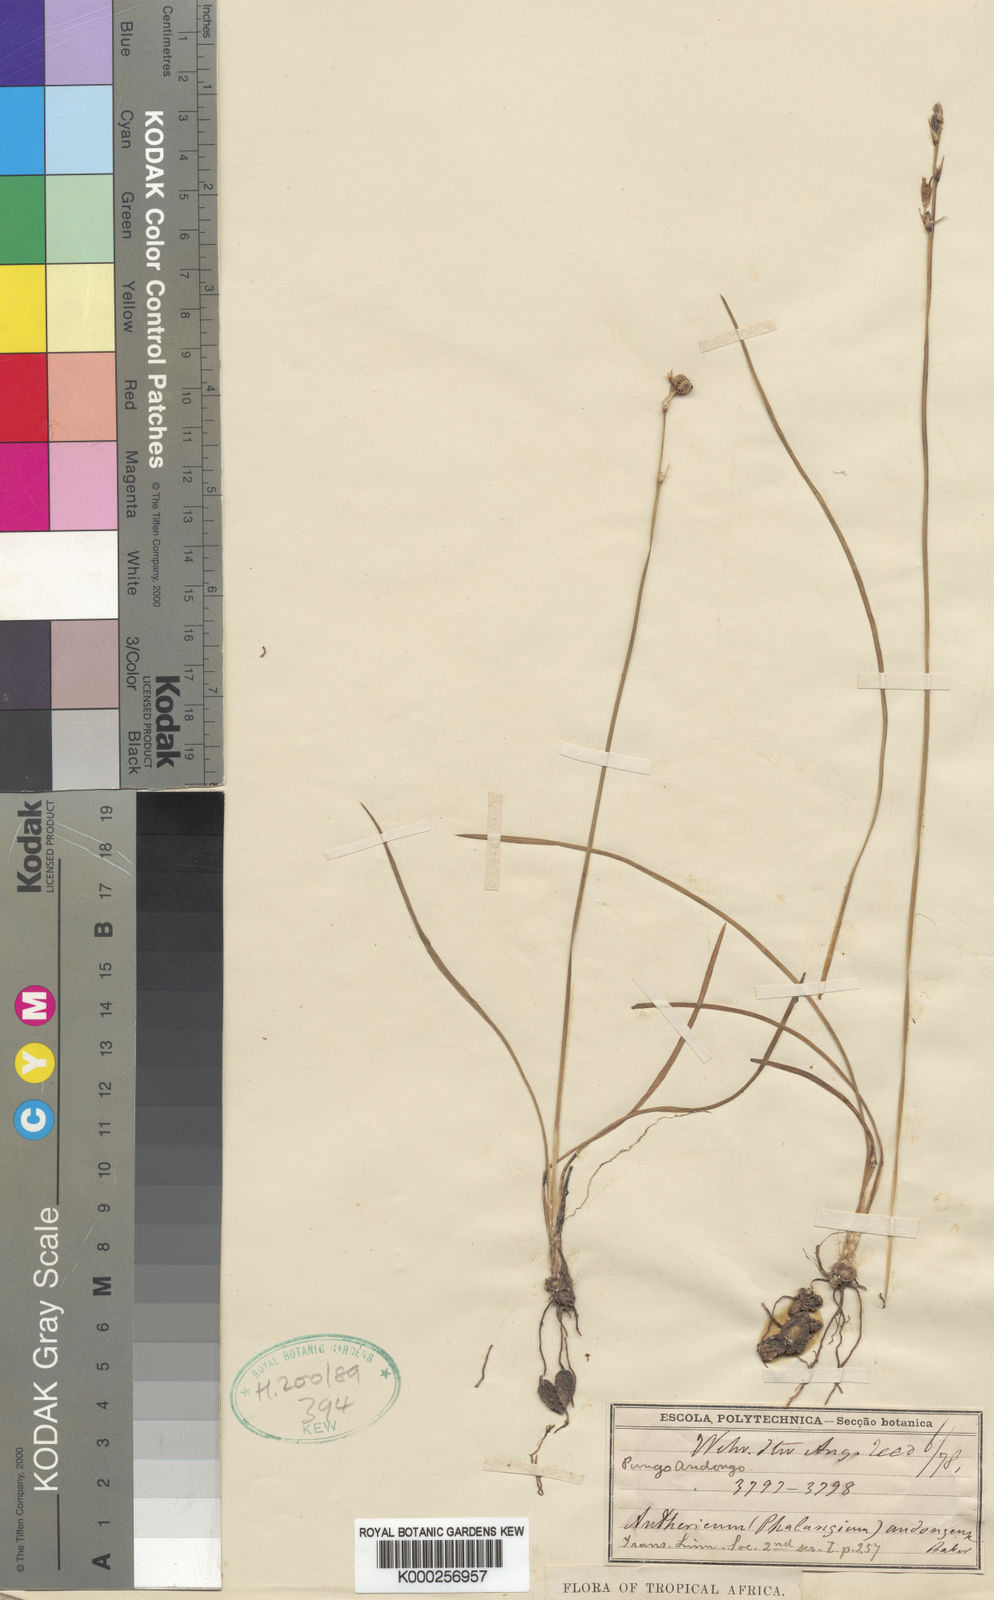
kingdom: Plantae
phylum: Tracheophyta
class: Liliopsida
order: Asparagales
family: Asparagaceae
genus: Chlorophytum
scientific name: Chlorophytum sphagnicola
